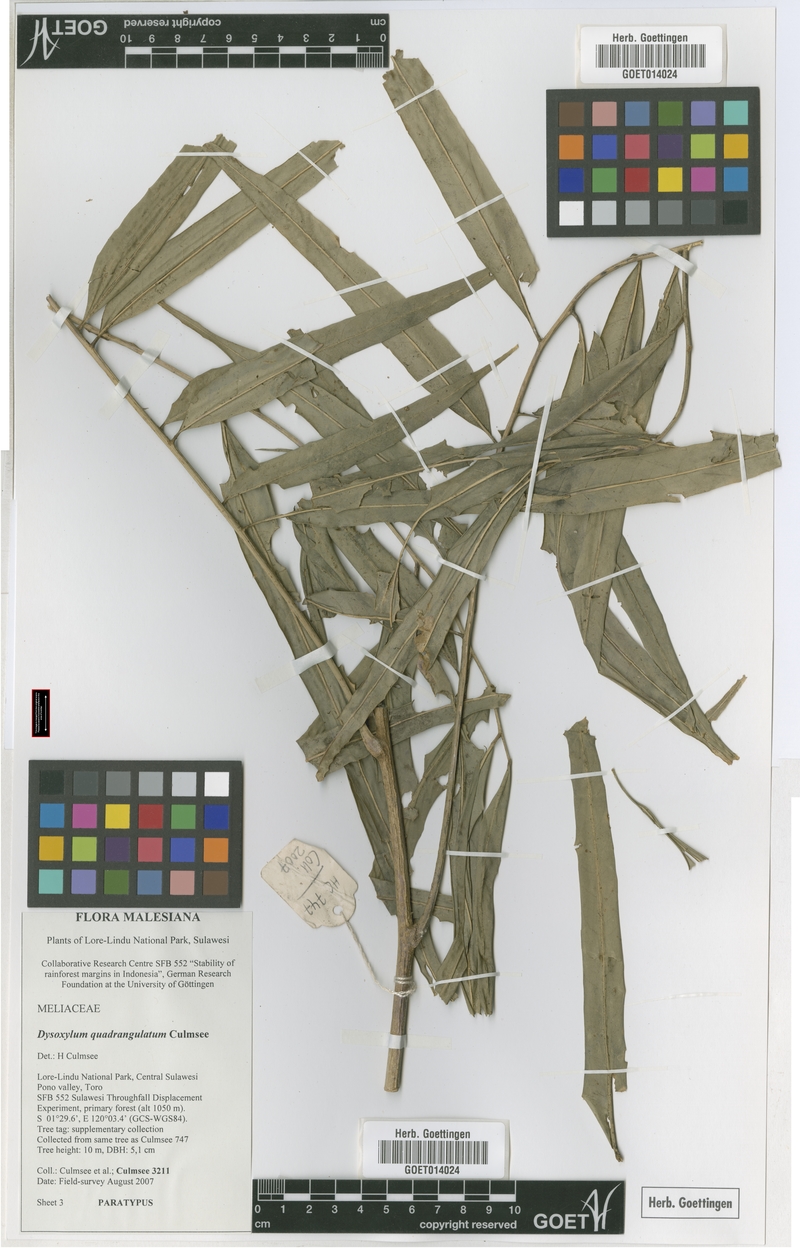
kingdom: Plantae
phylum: Tracheophyta
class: Magnoliopsida
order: Sapindales
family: Meliaceae
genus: Dysoxylum
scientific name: Dysoxylum quadrangulatum
